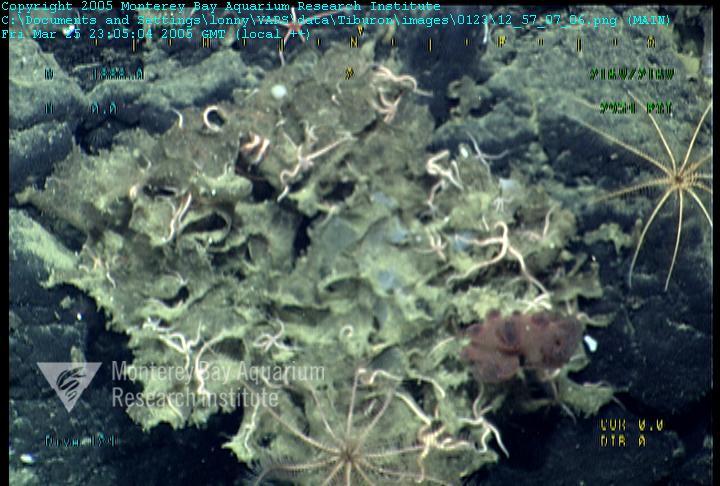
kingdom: Animalia
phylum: Porifera
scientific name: Porifera
